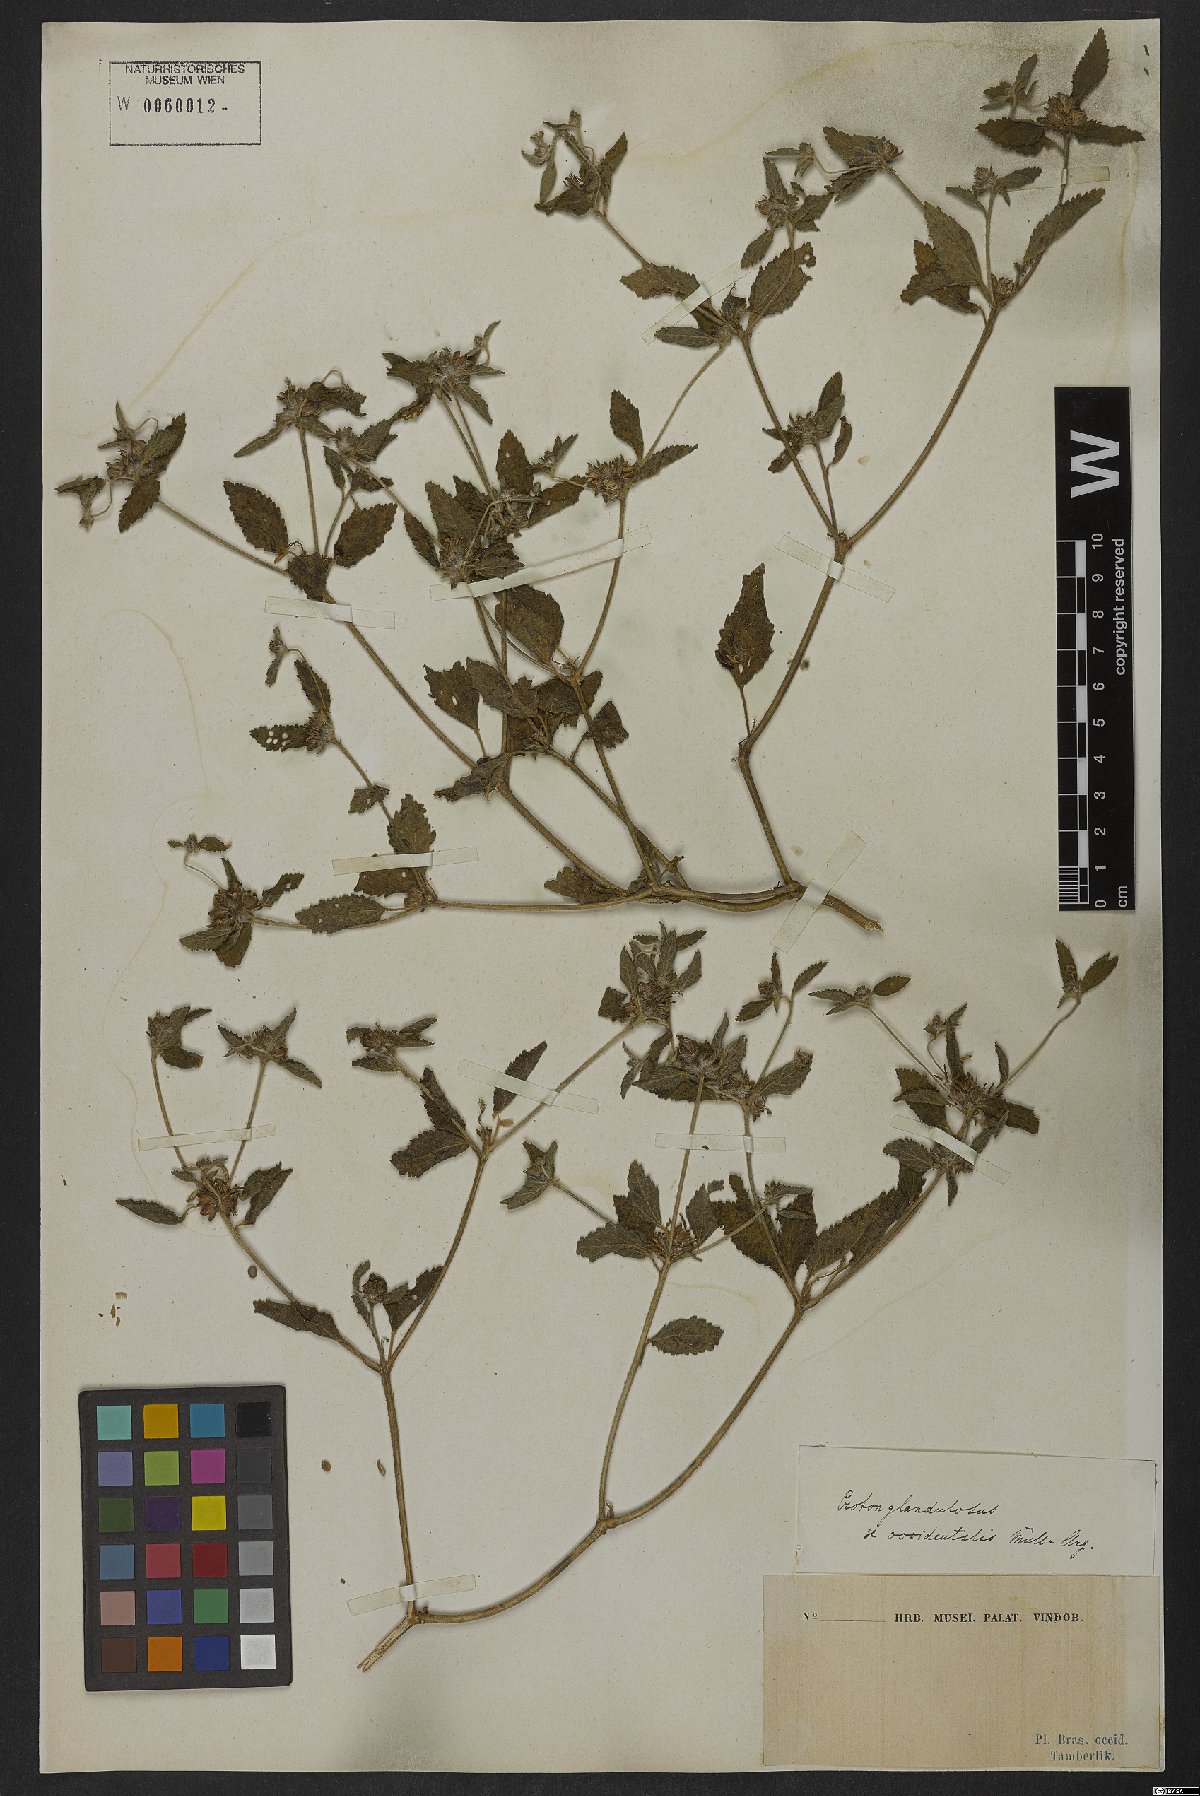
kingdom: Plantae
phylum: Tracheophyta
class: Magnoliopsida
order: Malpighiales
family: Euphorbiaceae
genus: Croton
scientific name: Croton glandulosus
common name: Tropic croton
